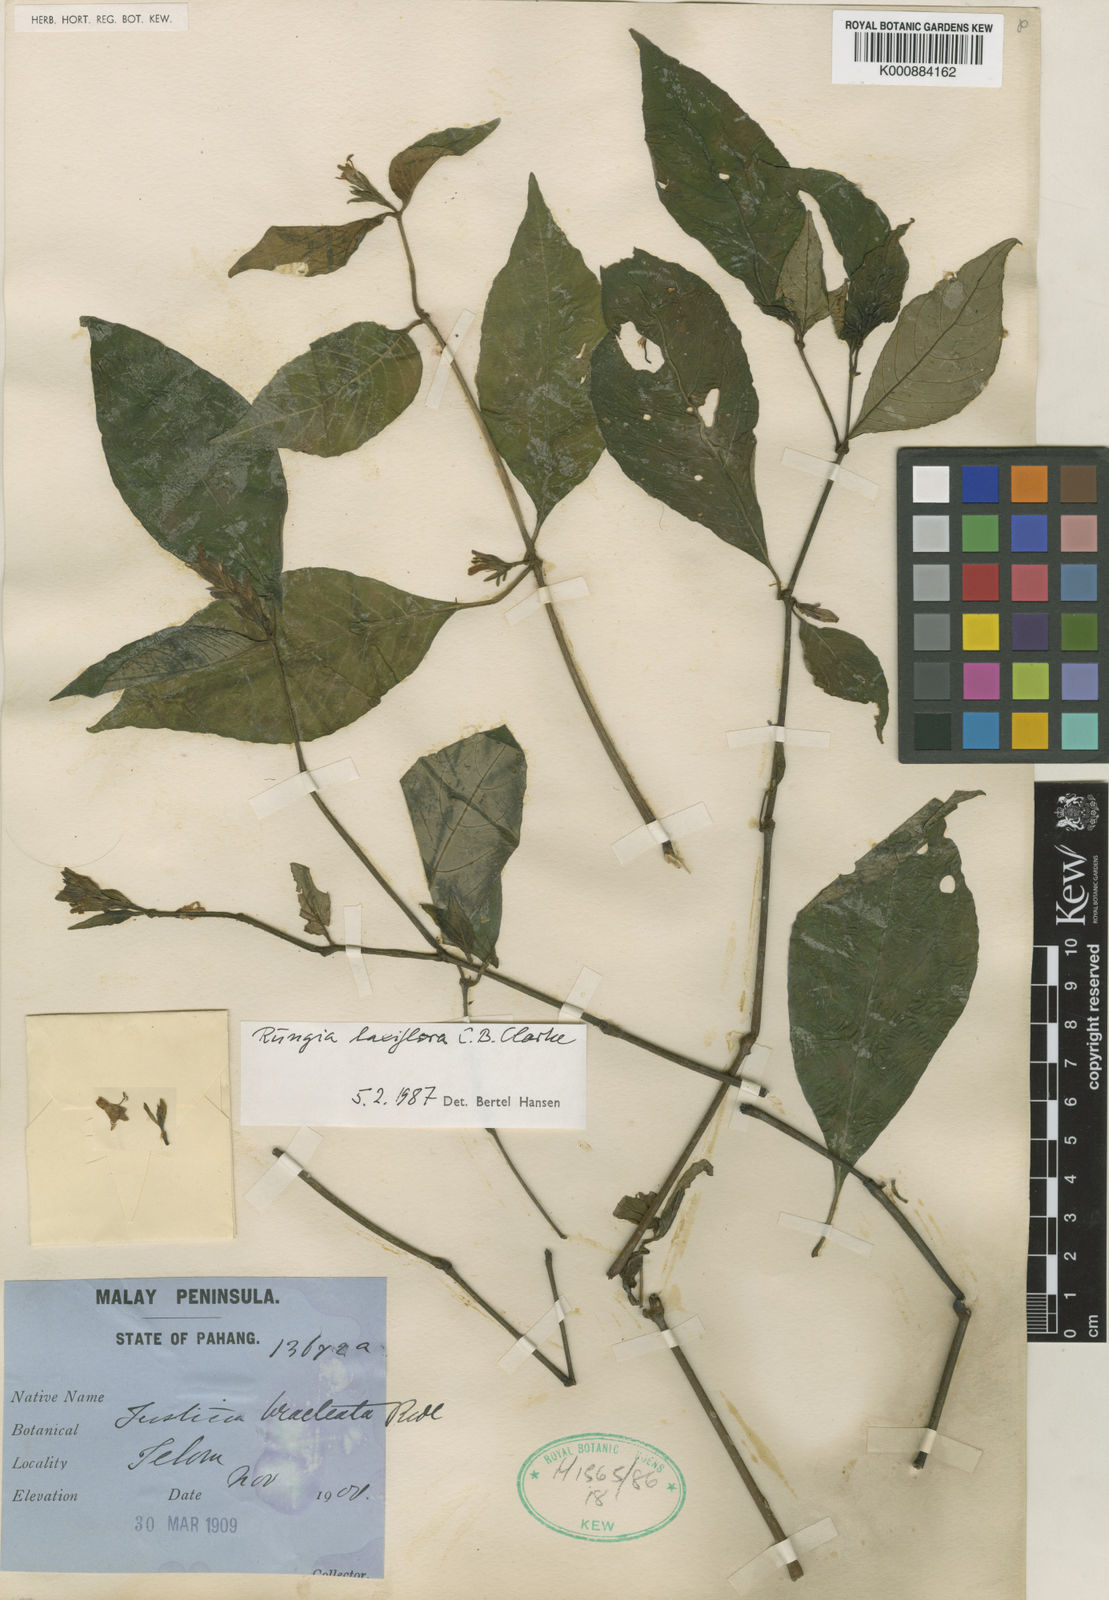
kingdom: Plantae
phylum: Tracheophyta
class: Magnoliopsida
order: Lamiales
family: Acanthaceae
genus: Haplanthus
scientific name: Haplanthus laxiflorus
